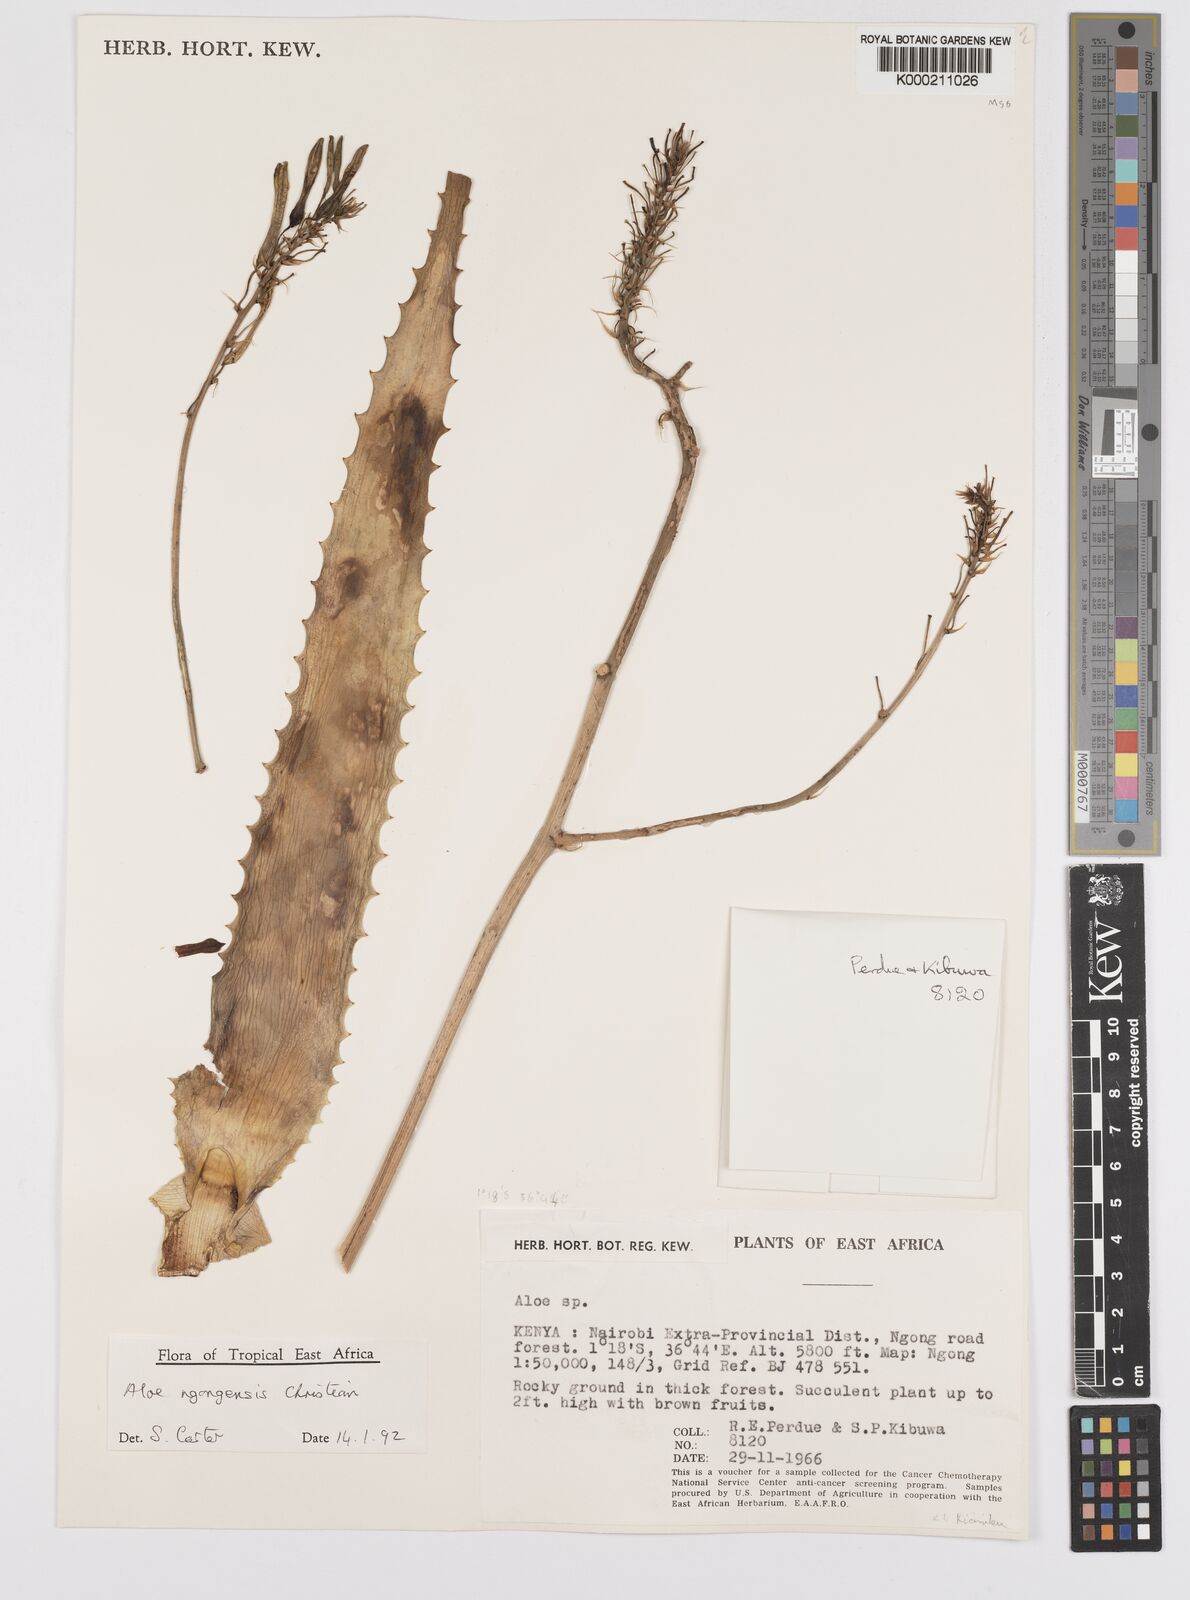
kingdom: Plantae
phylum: Tracheophyta
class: Liliopsida
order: Asparagales
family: Asphodelaceae
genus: Aloe
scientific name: Aloe ngongensis
